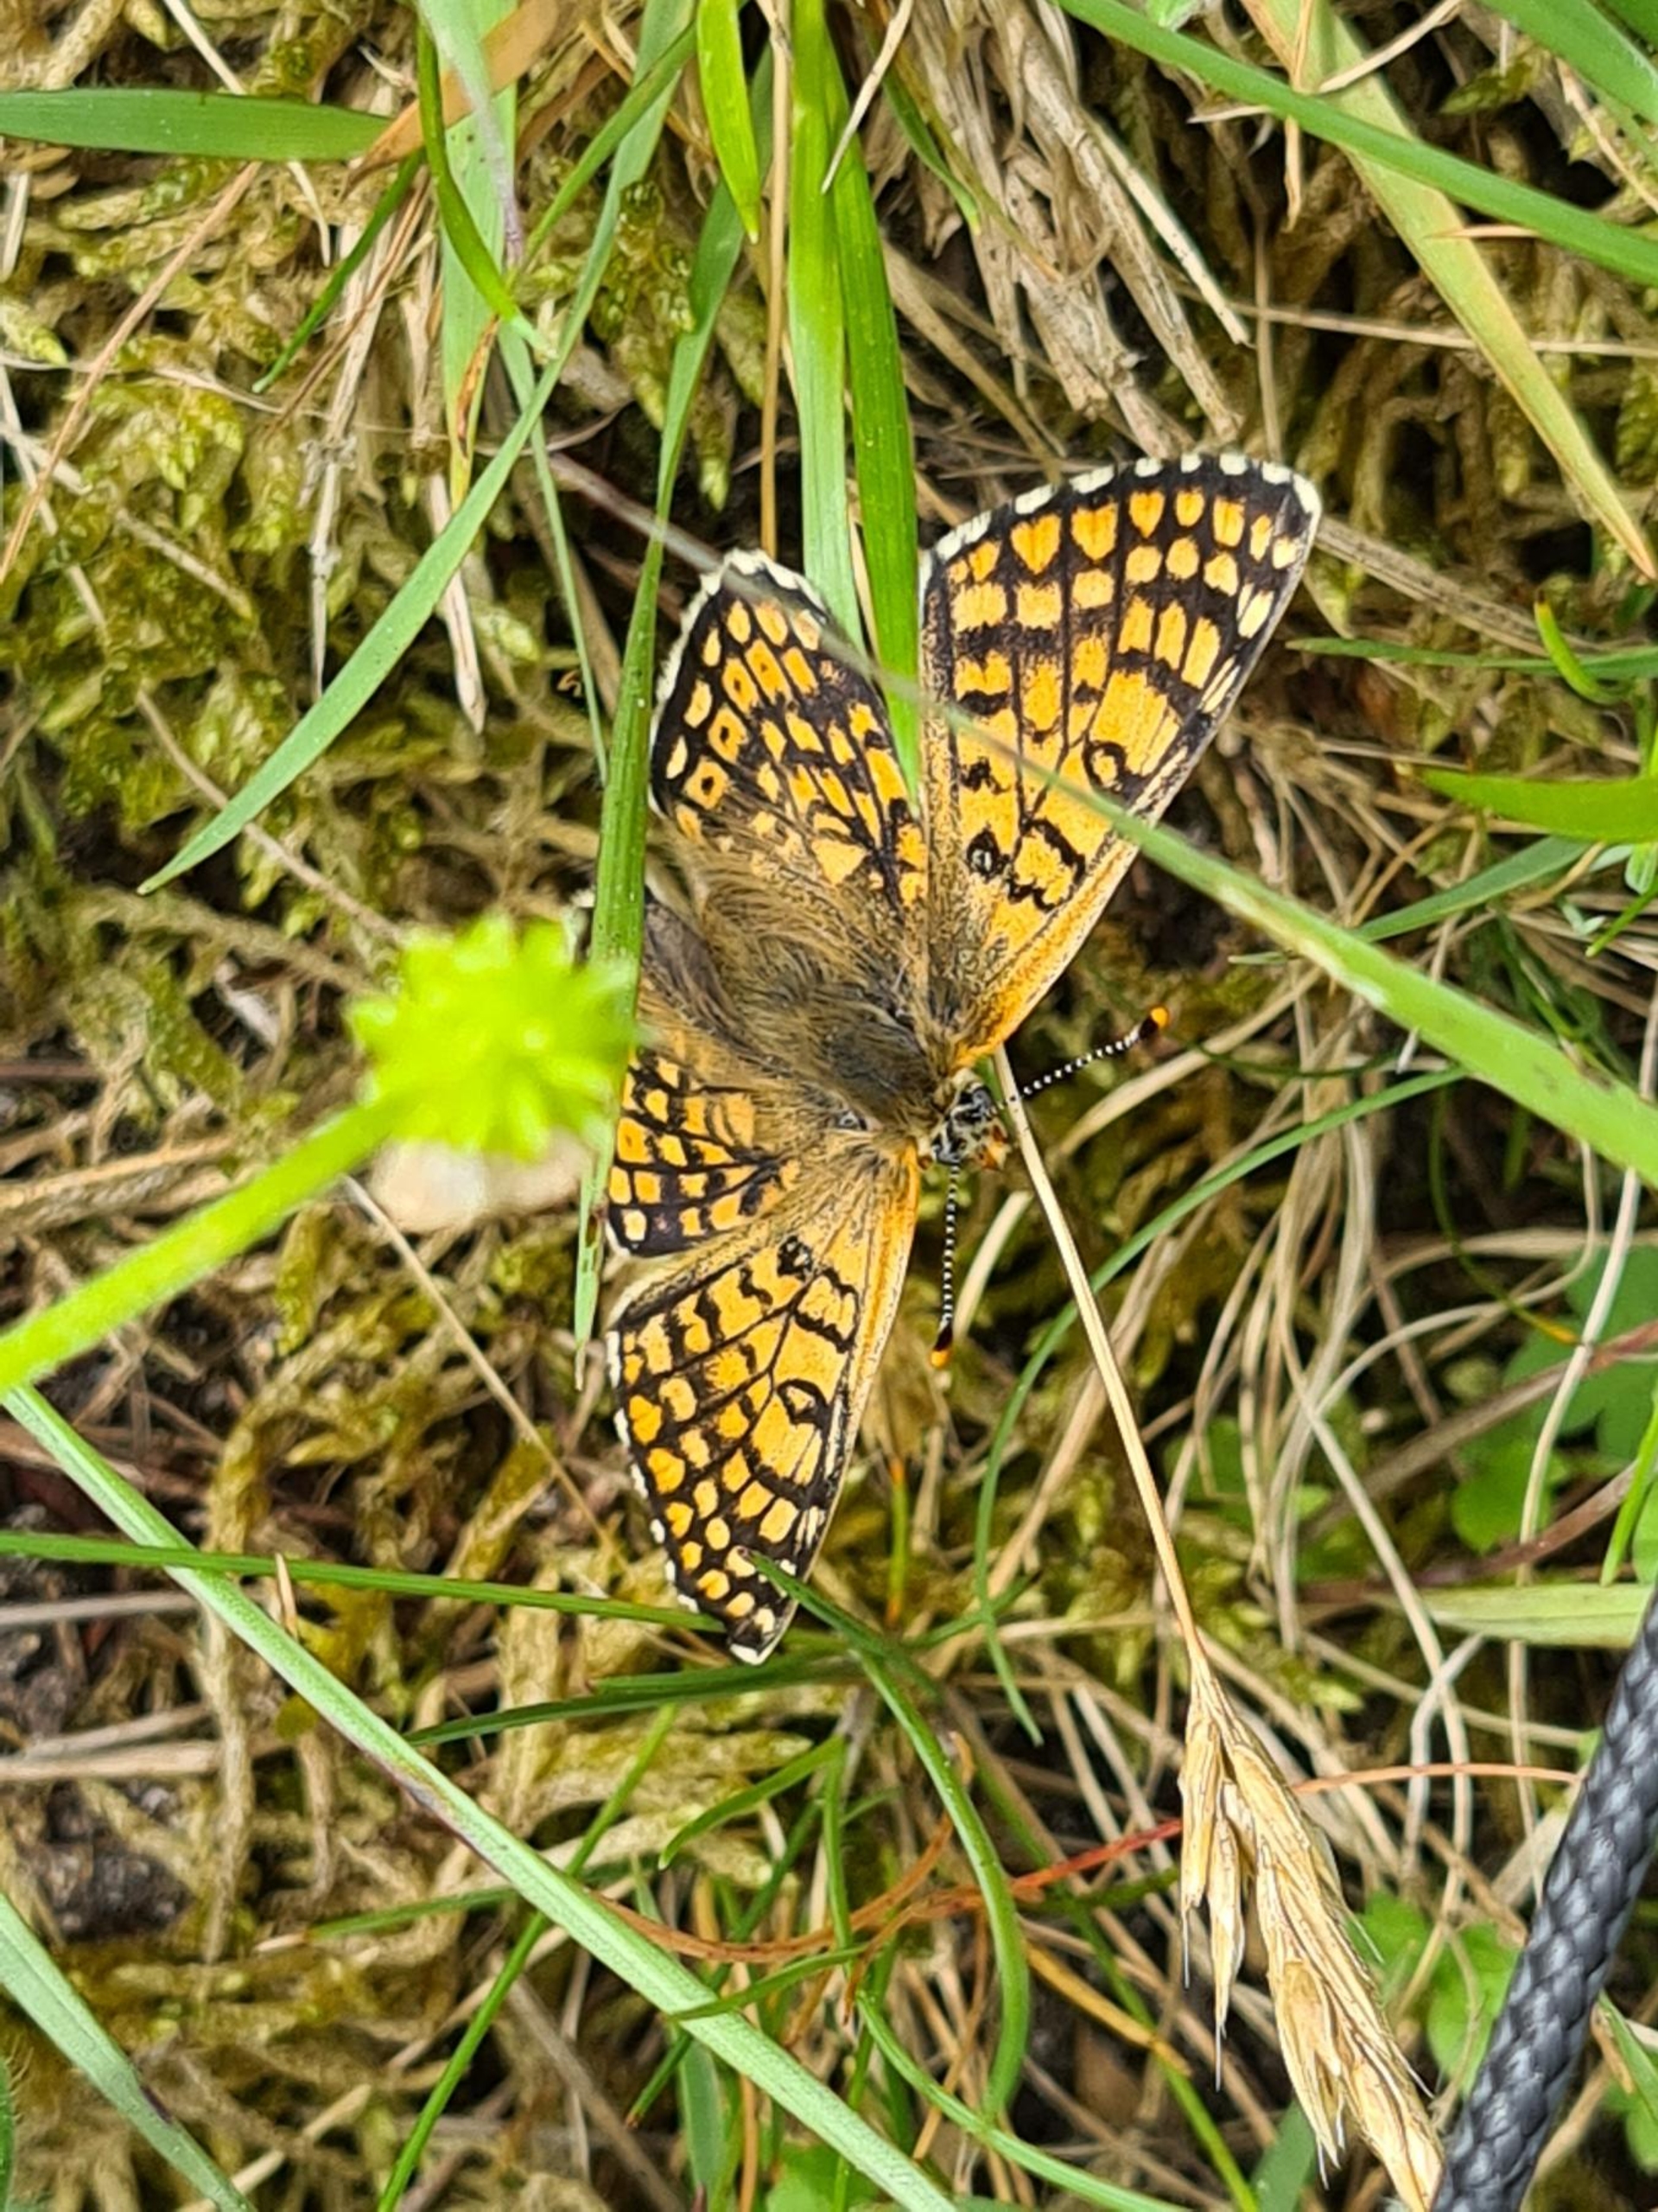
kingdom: Animalia
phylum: Arthropoda
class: Insecta
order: Lepidoptera
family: Nymphalidae
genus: Melitaea
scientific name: Melitaea cinxia
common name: Okkergul pletvinge
